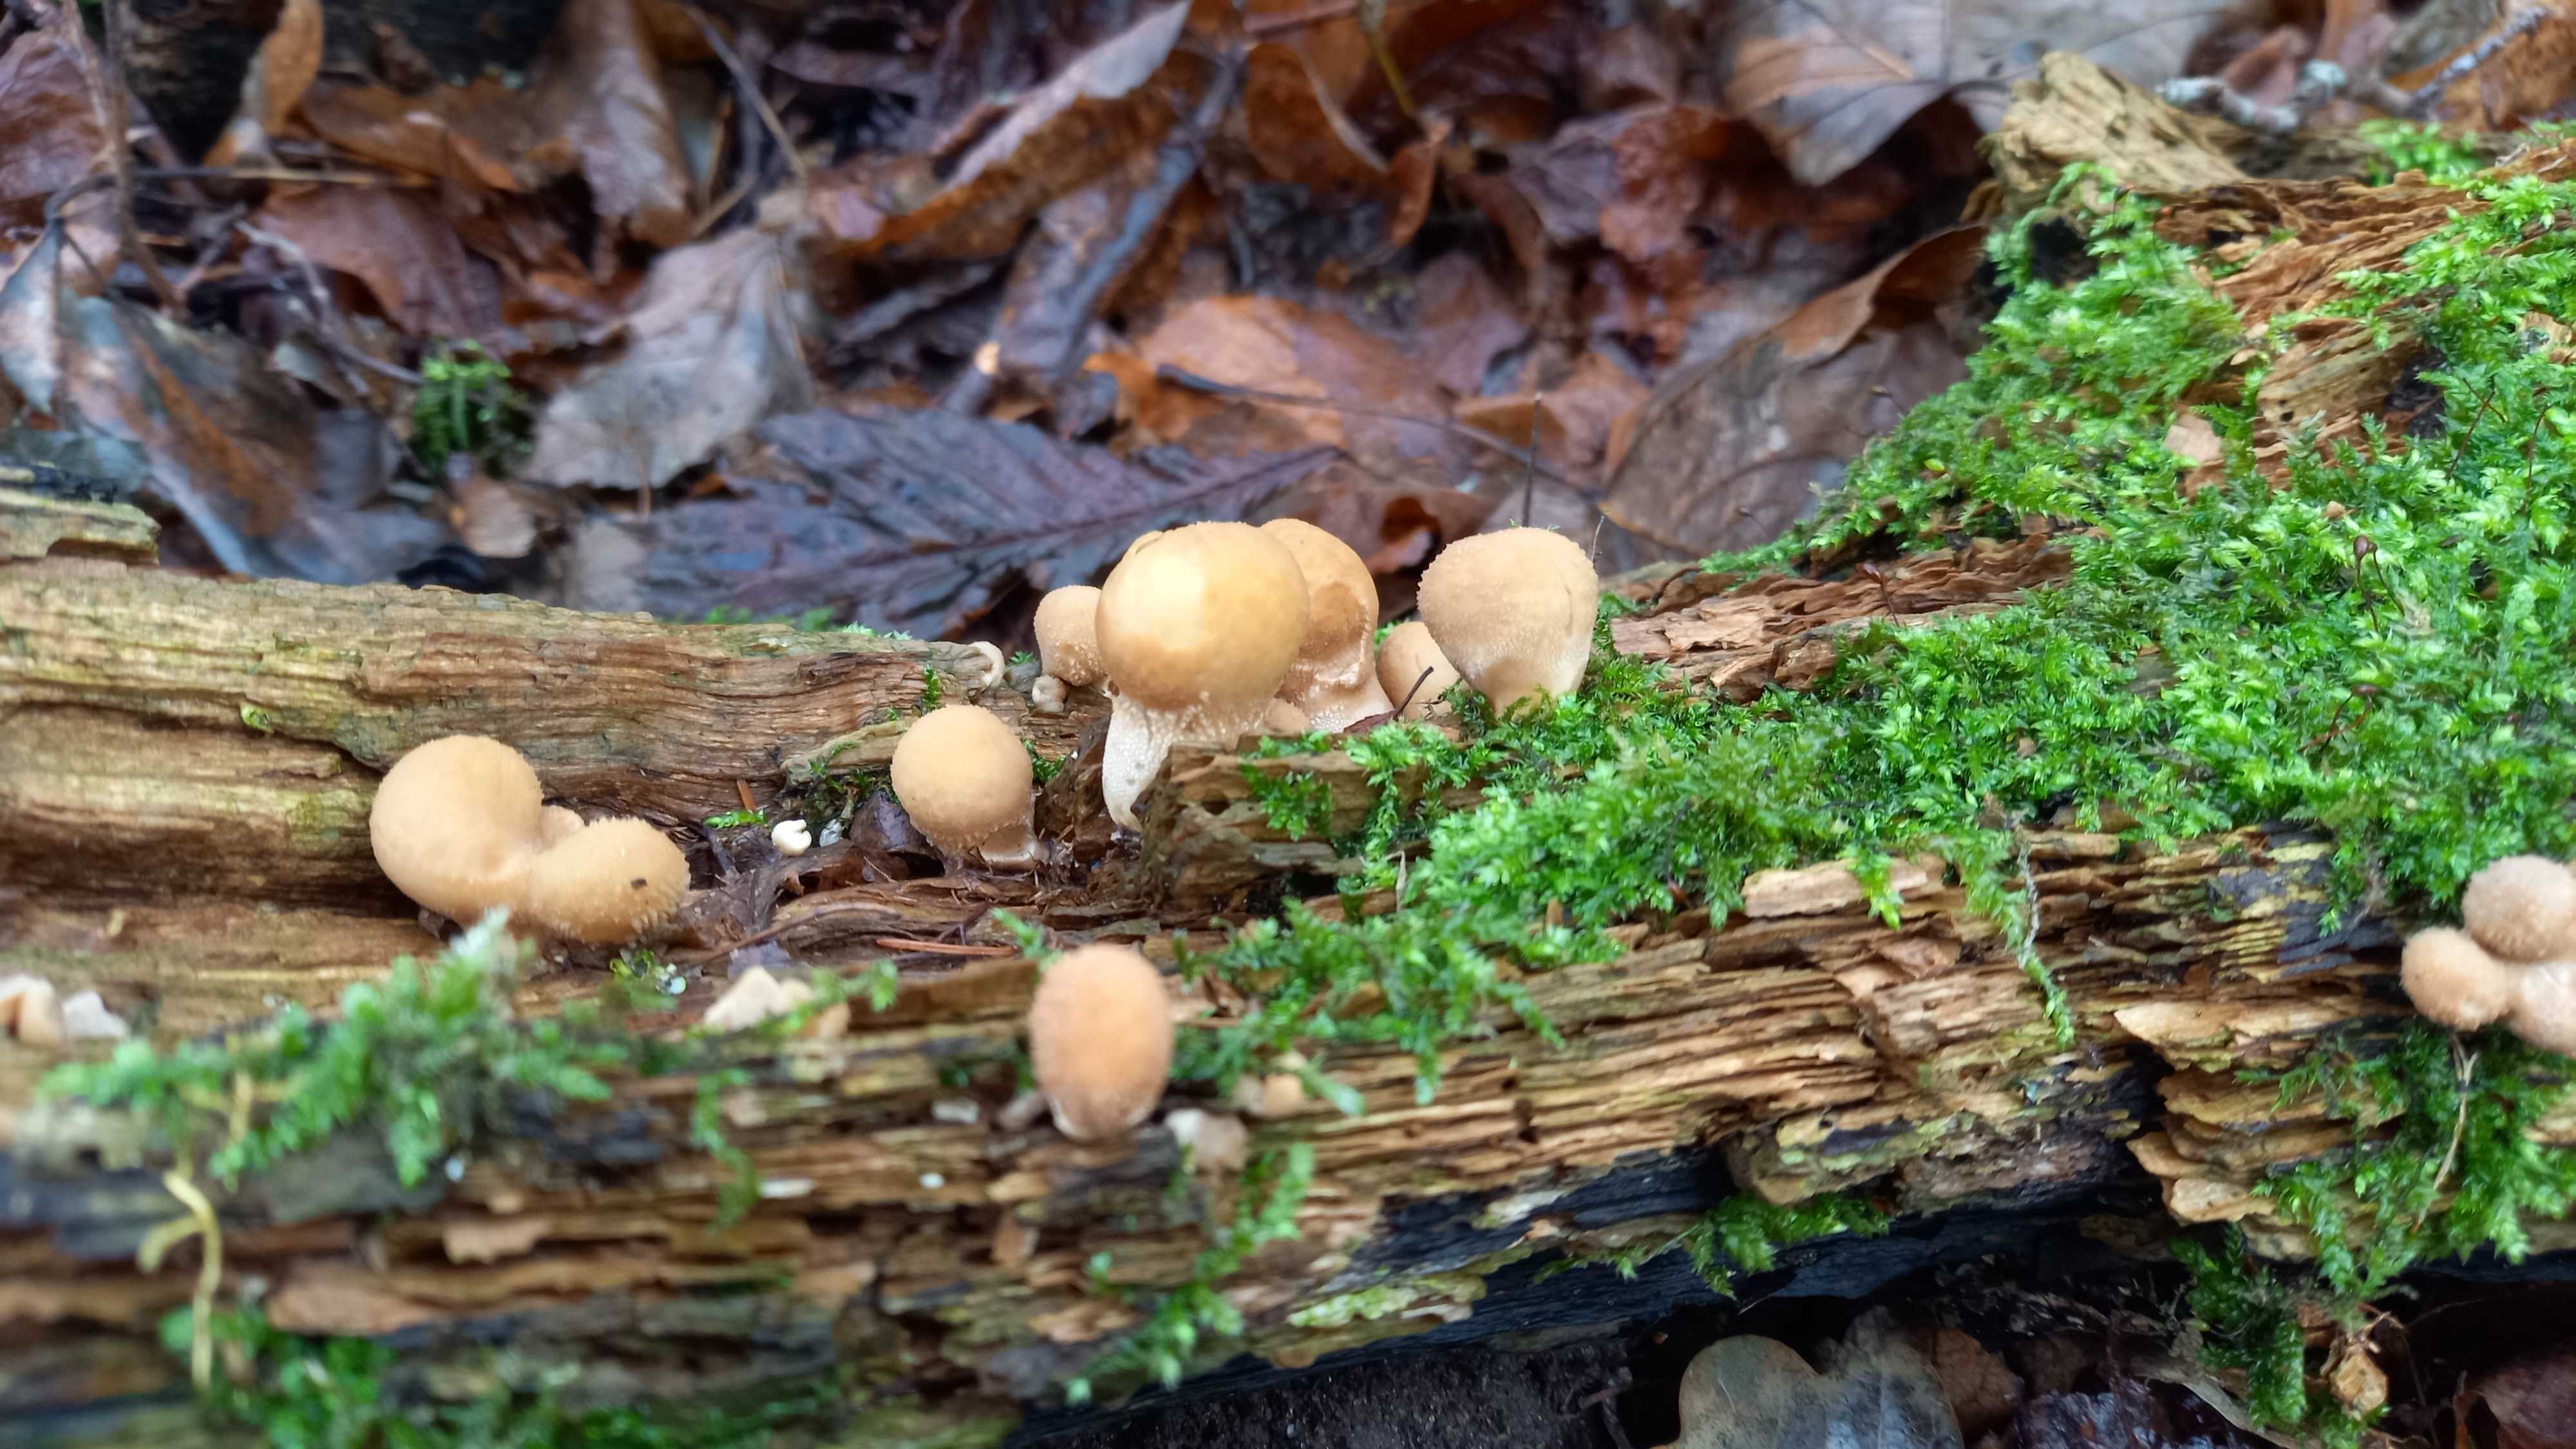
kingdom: Fungi
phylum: Basidiomycota
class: Agaricomycetes
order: Agaricales
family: Lycoperdaceae
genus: Apioperdon
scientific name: Apioperdon pyriforme
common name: pære-støvbold
